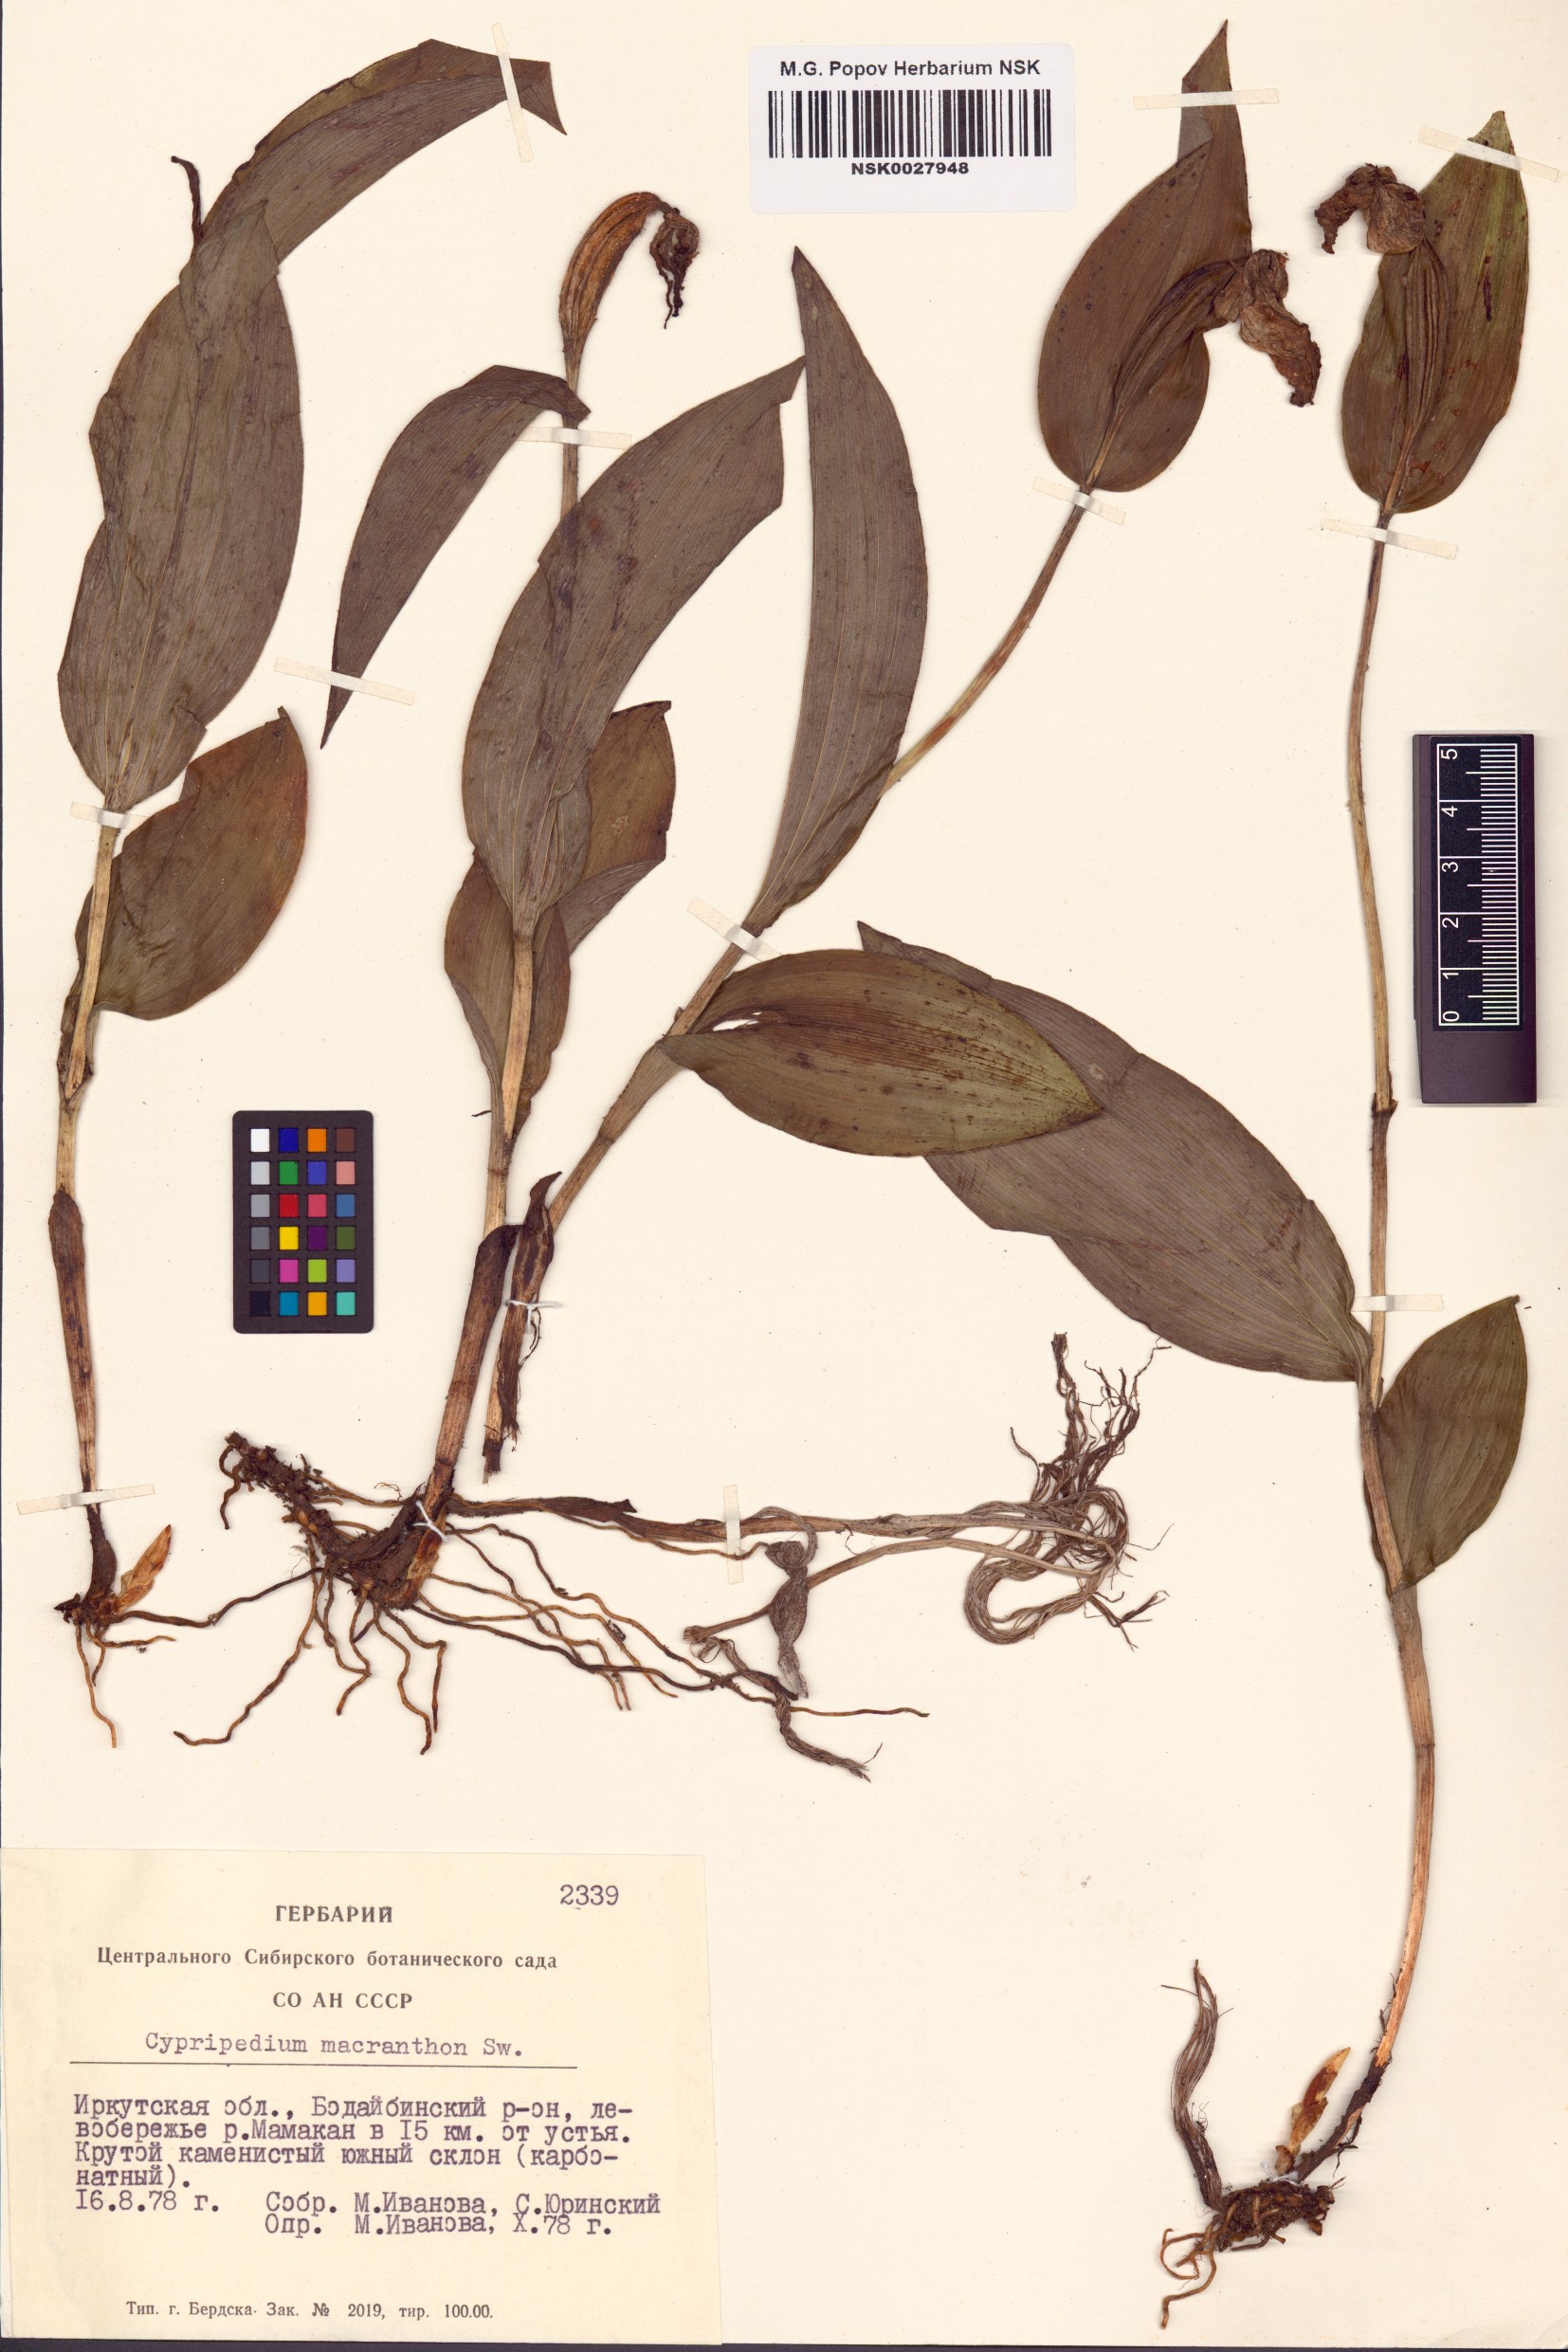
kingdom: Plantae
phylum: Tracheophyta
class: Liliopsida
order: Asparagales
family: Orchidaceae
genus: Cypripedium
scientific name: Cypripedium macranthos
